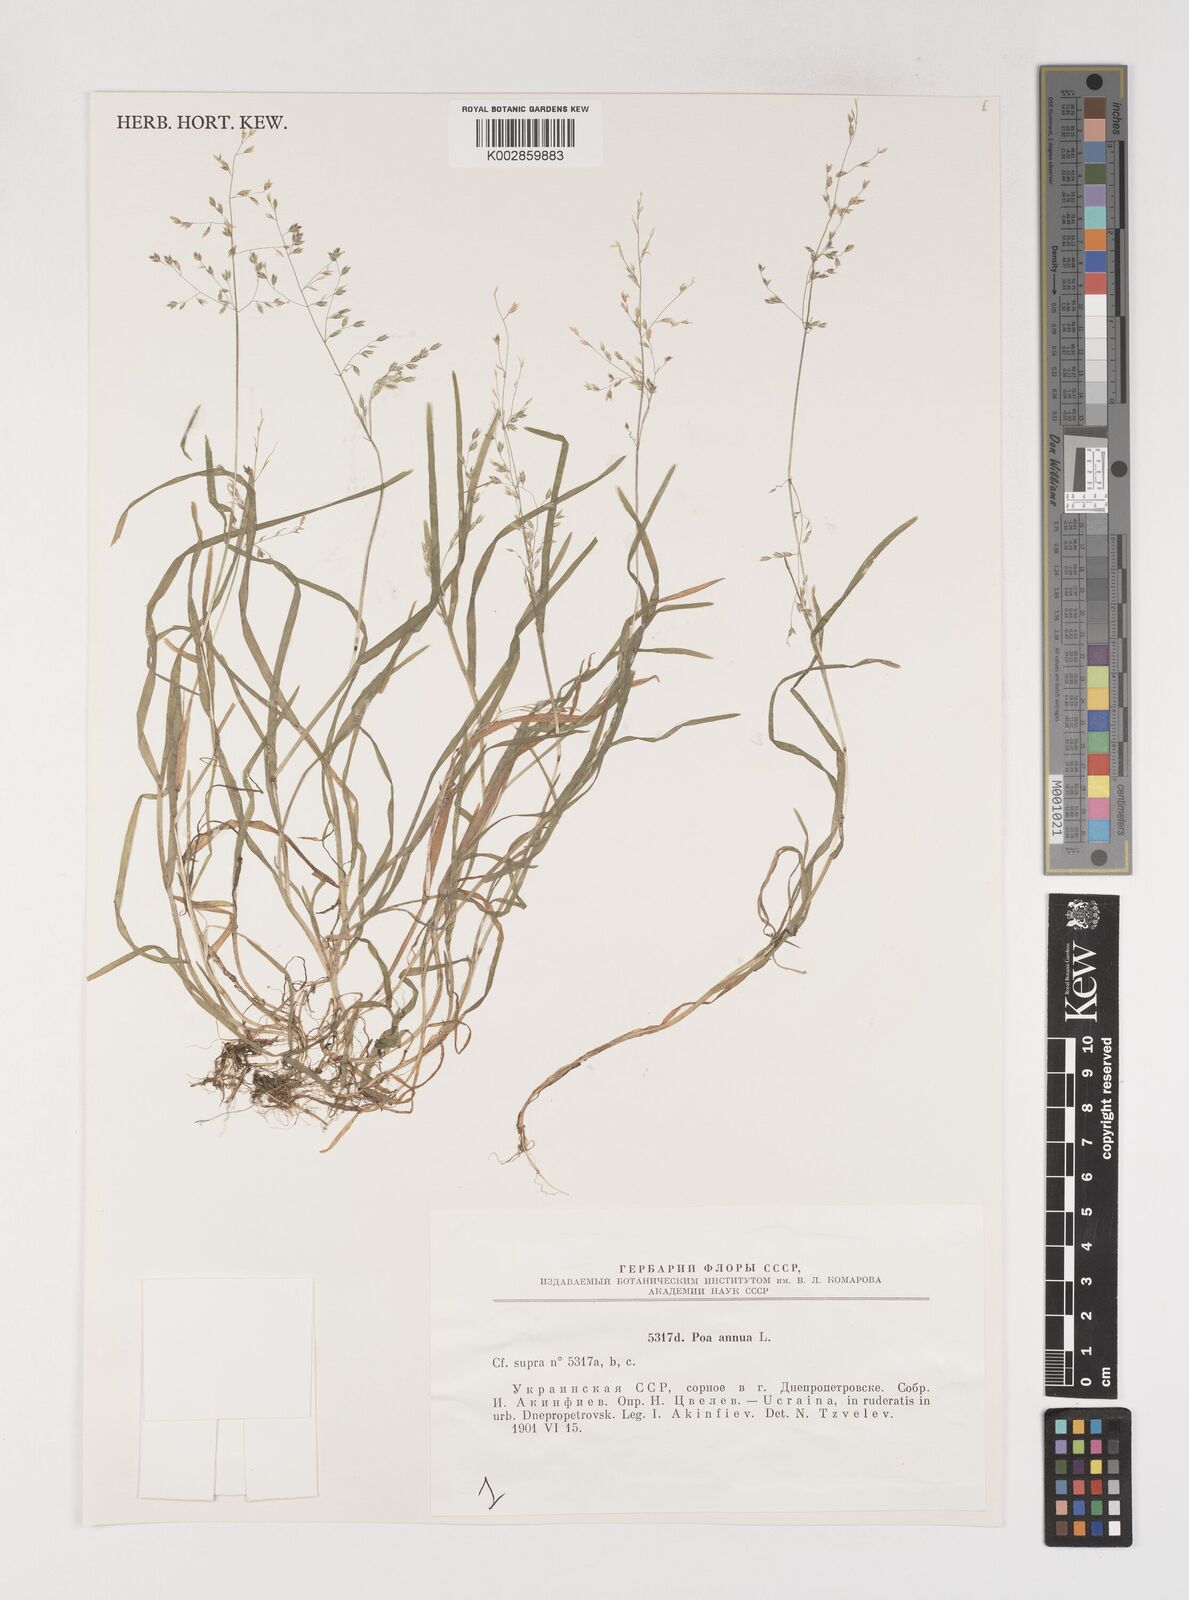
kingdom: Plantae
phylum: Tracheophyta
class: Liliopsida
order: Poales
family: Poaceae
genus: Poa
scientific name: Poa annua
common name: Annual bluegrass
